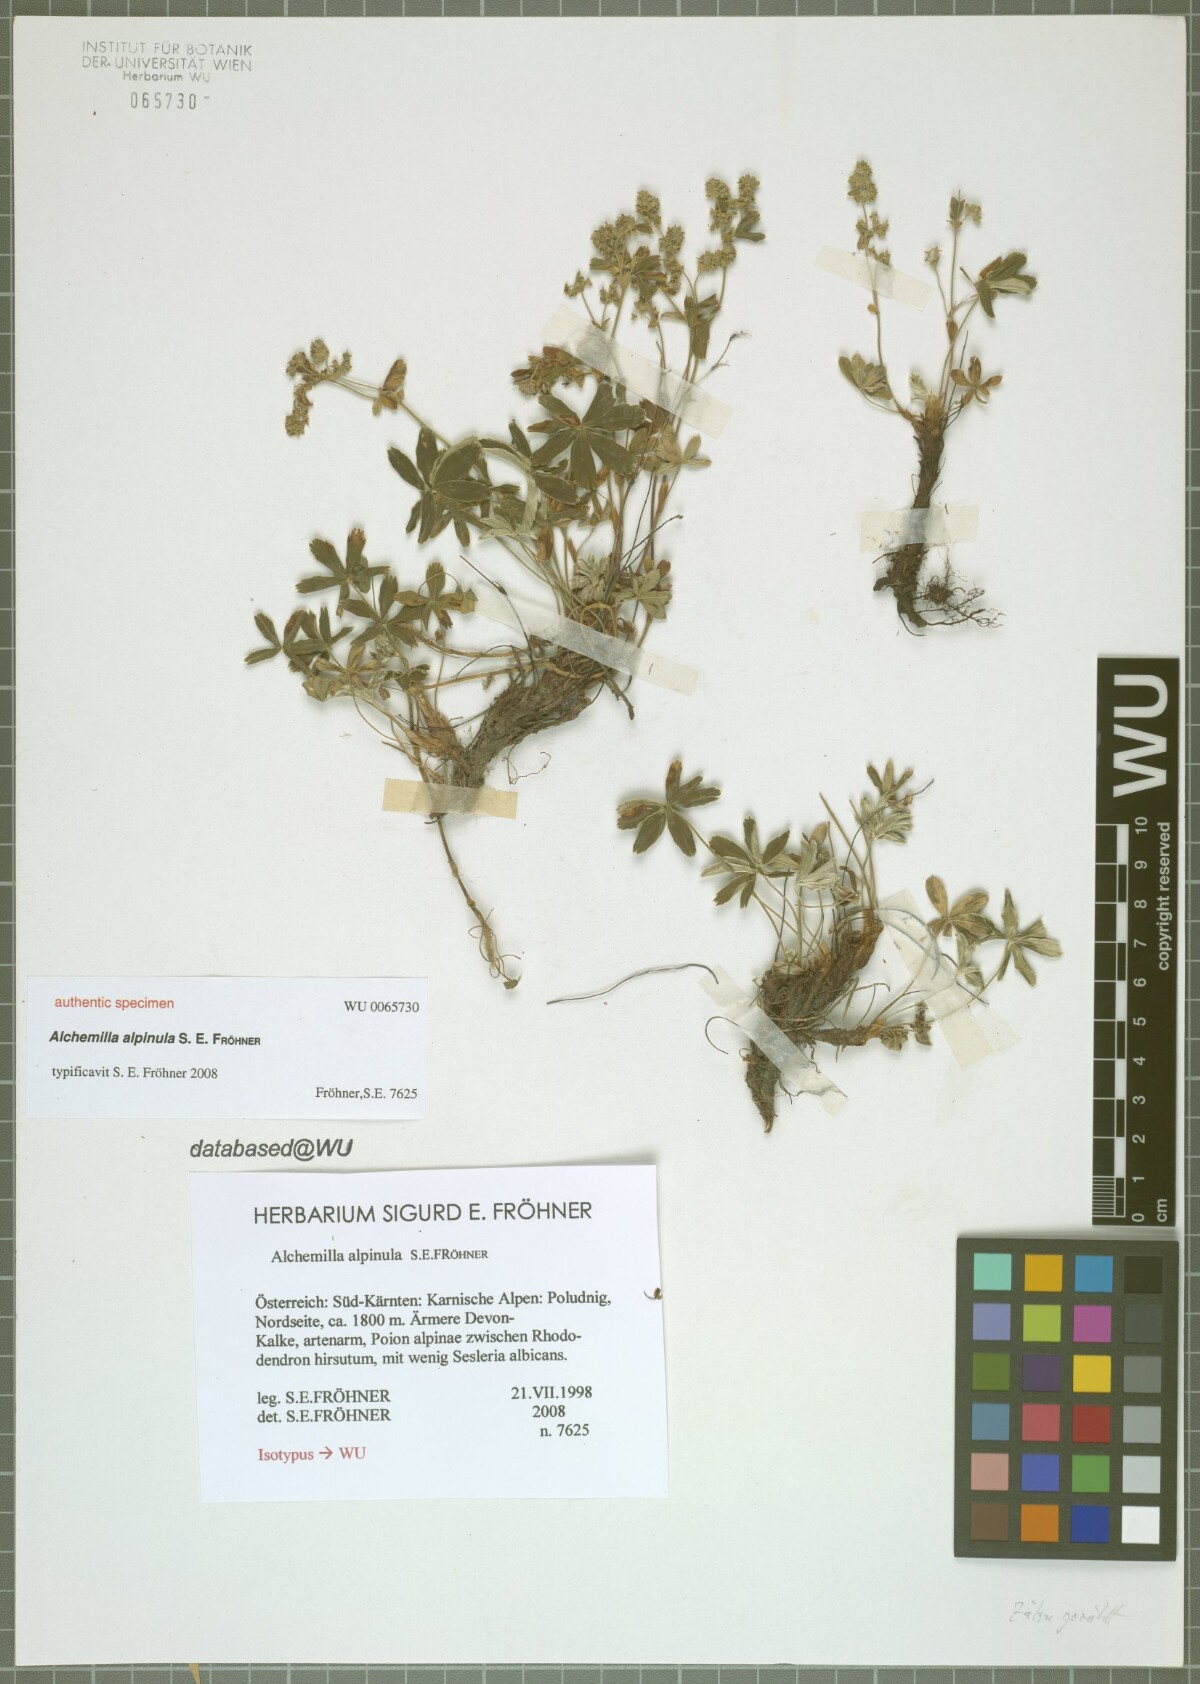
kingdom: Plantae
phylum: Tracheophyta
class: Magnoliopsida
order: Rosales
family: Rosaceae
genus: Alchemilla
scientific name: Alchemilla alpinula
